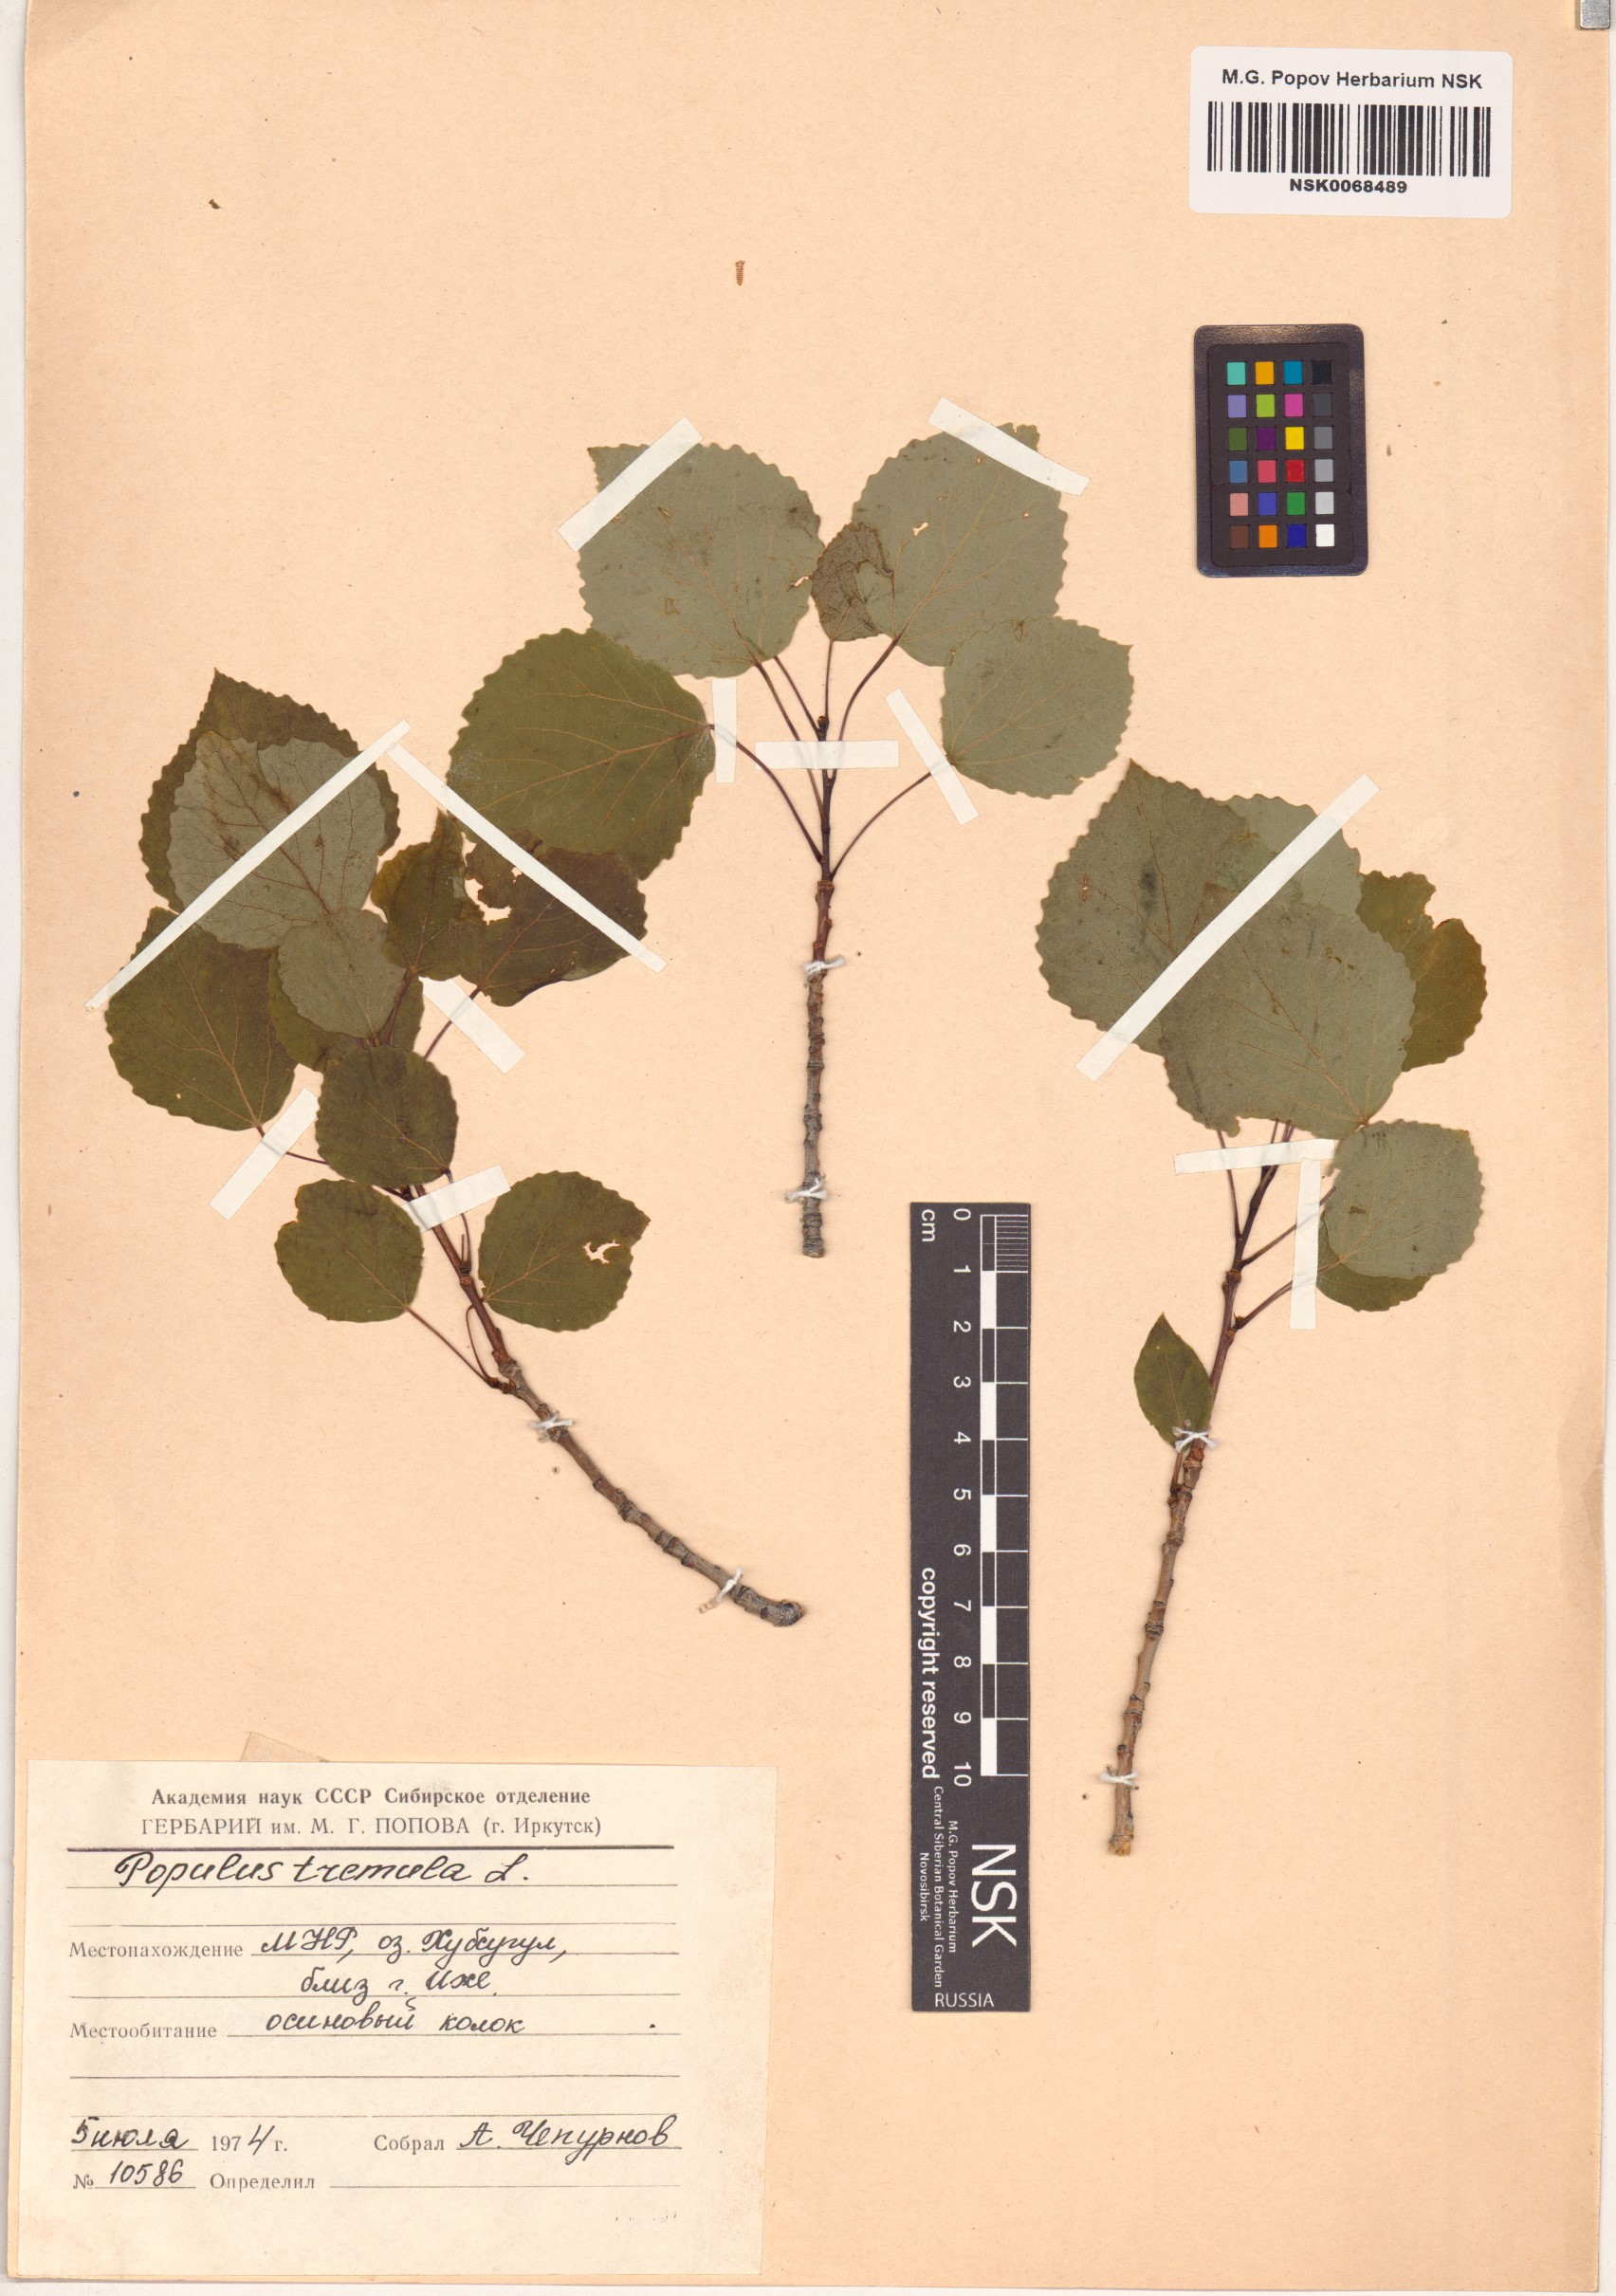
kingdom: Plantae
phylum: Tracheophyta
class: Magnoliopsida
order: Malpighiales
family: Salicaceae
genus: Populus
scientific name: Populus tremula
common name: European aspen
